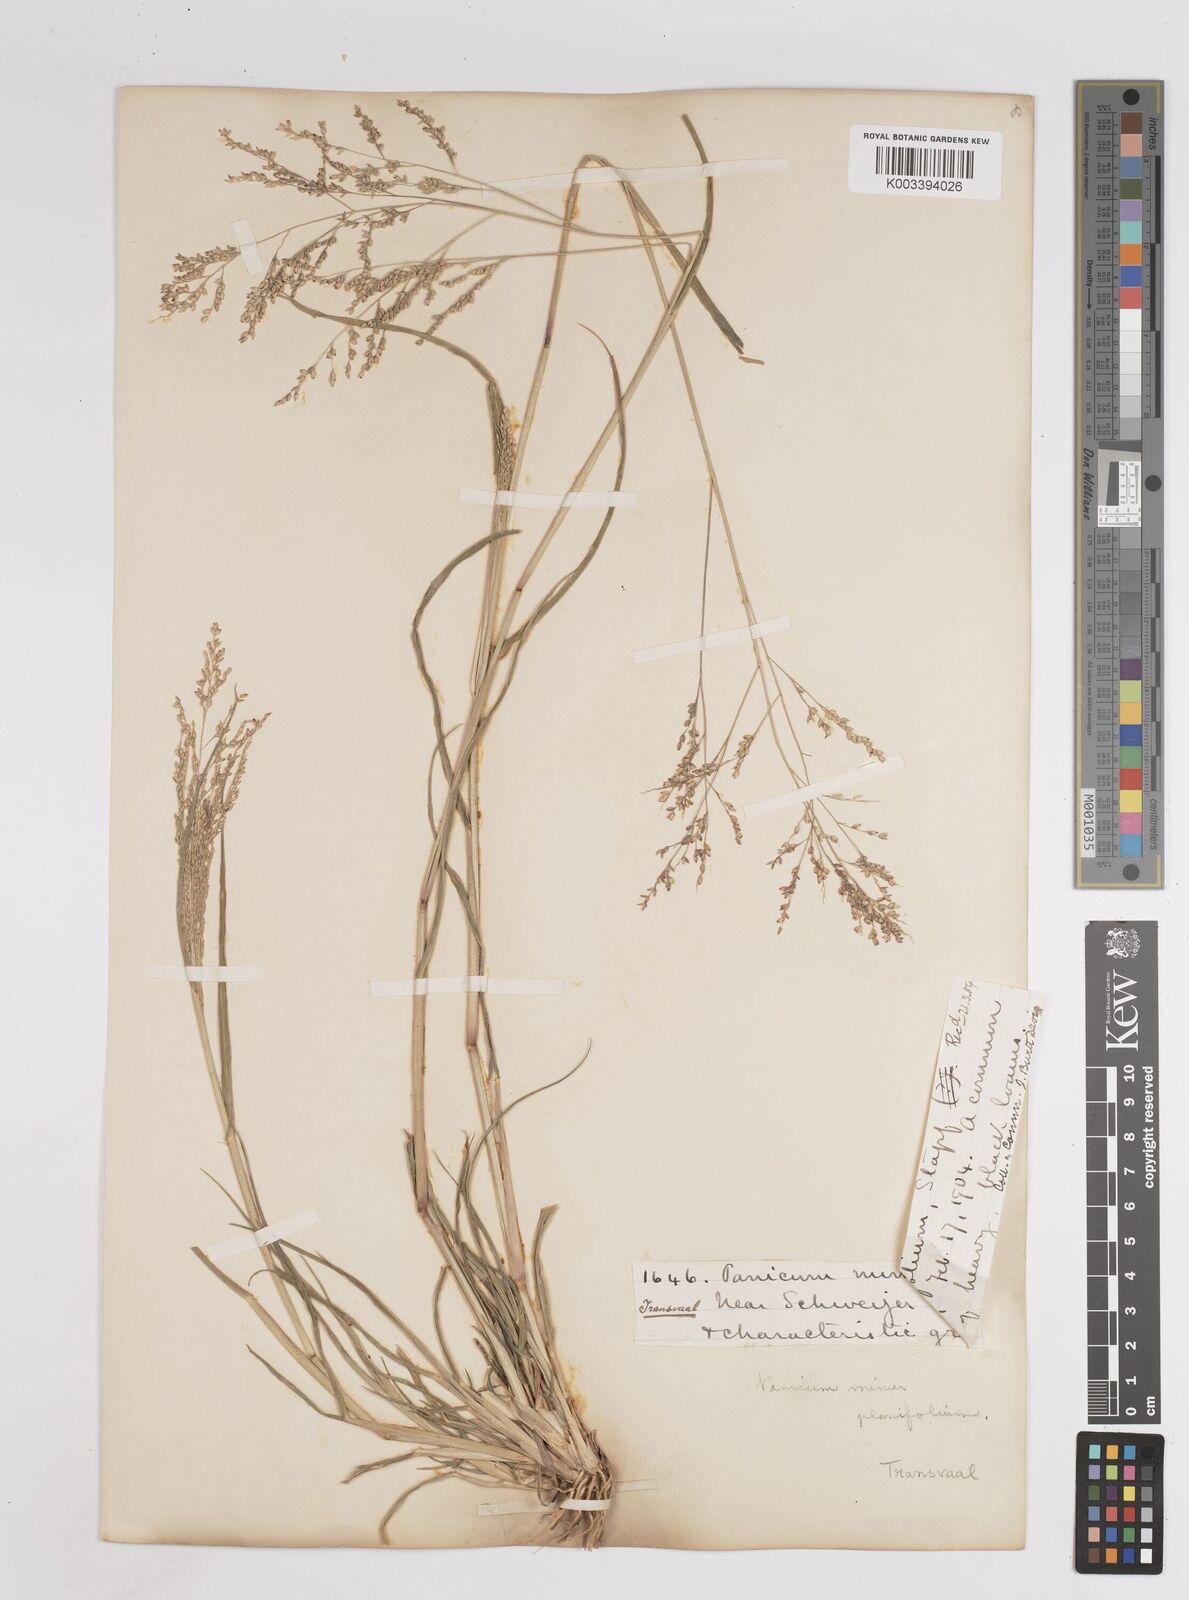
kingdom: Plantae
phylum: Tracheophyta
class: Liliopsida
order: Poales
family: Poaceae
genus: Panicum
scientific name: Panicum
